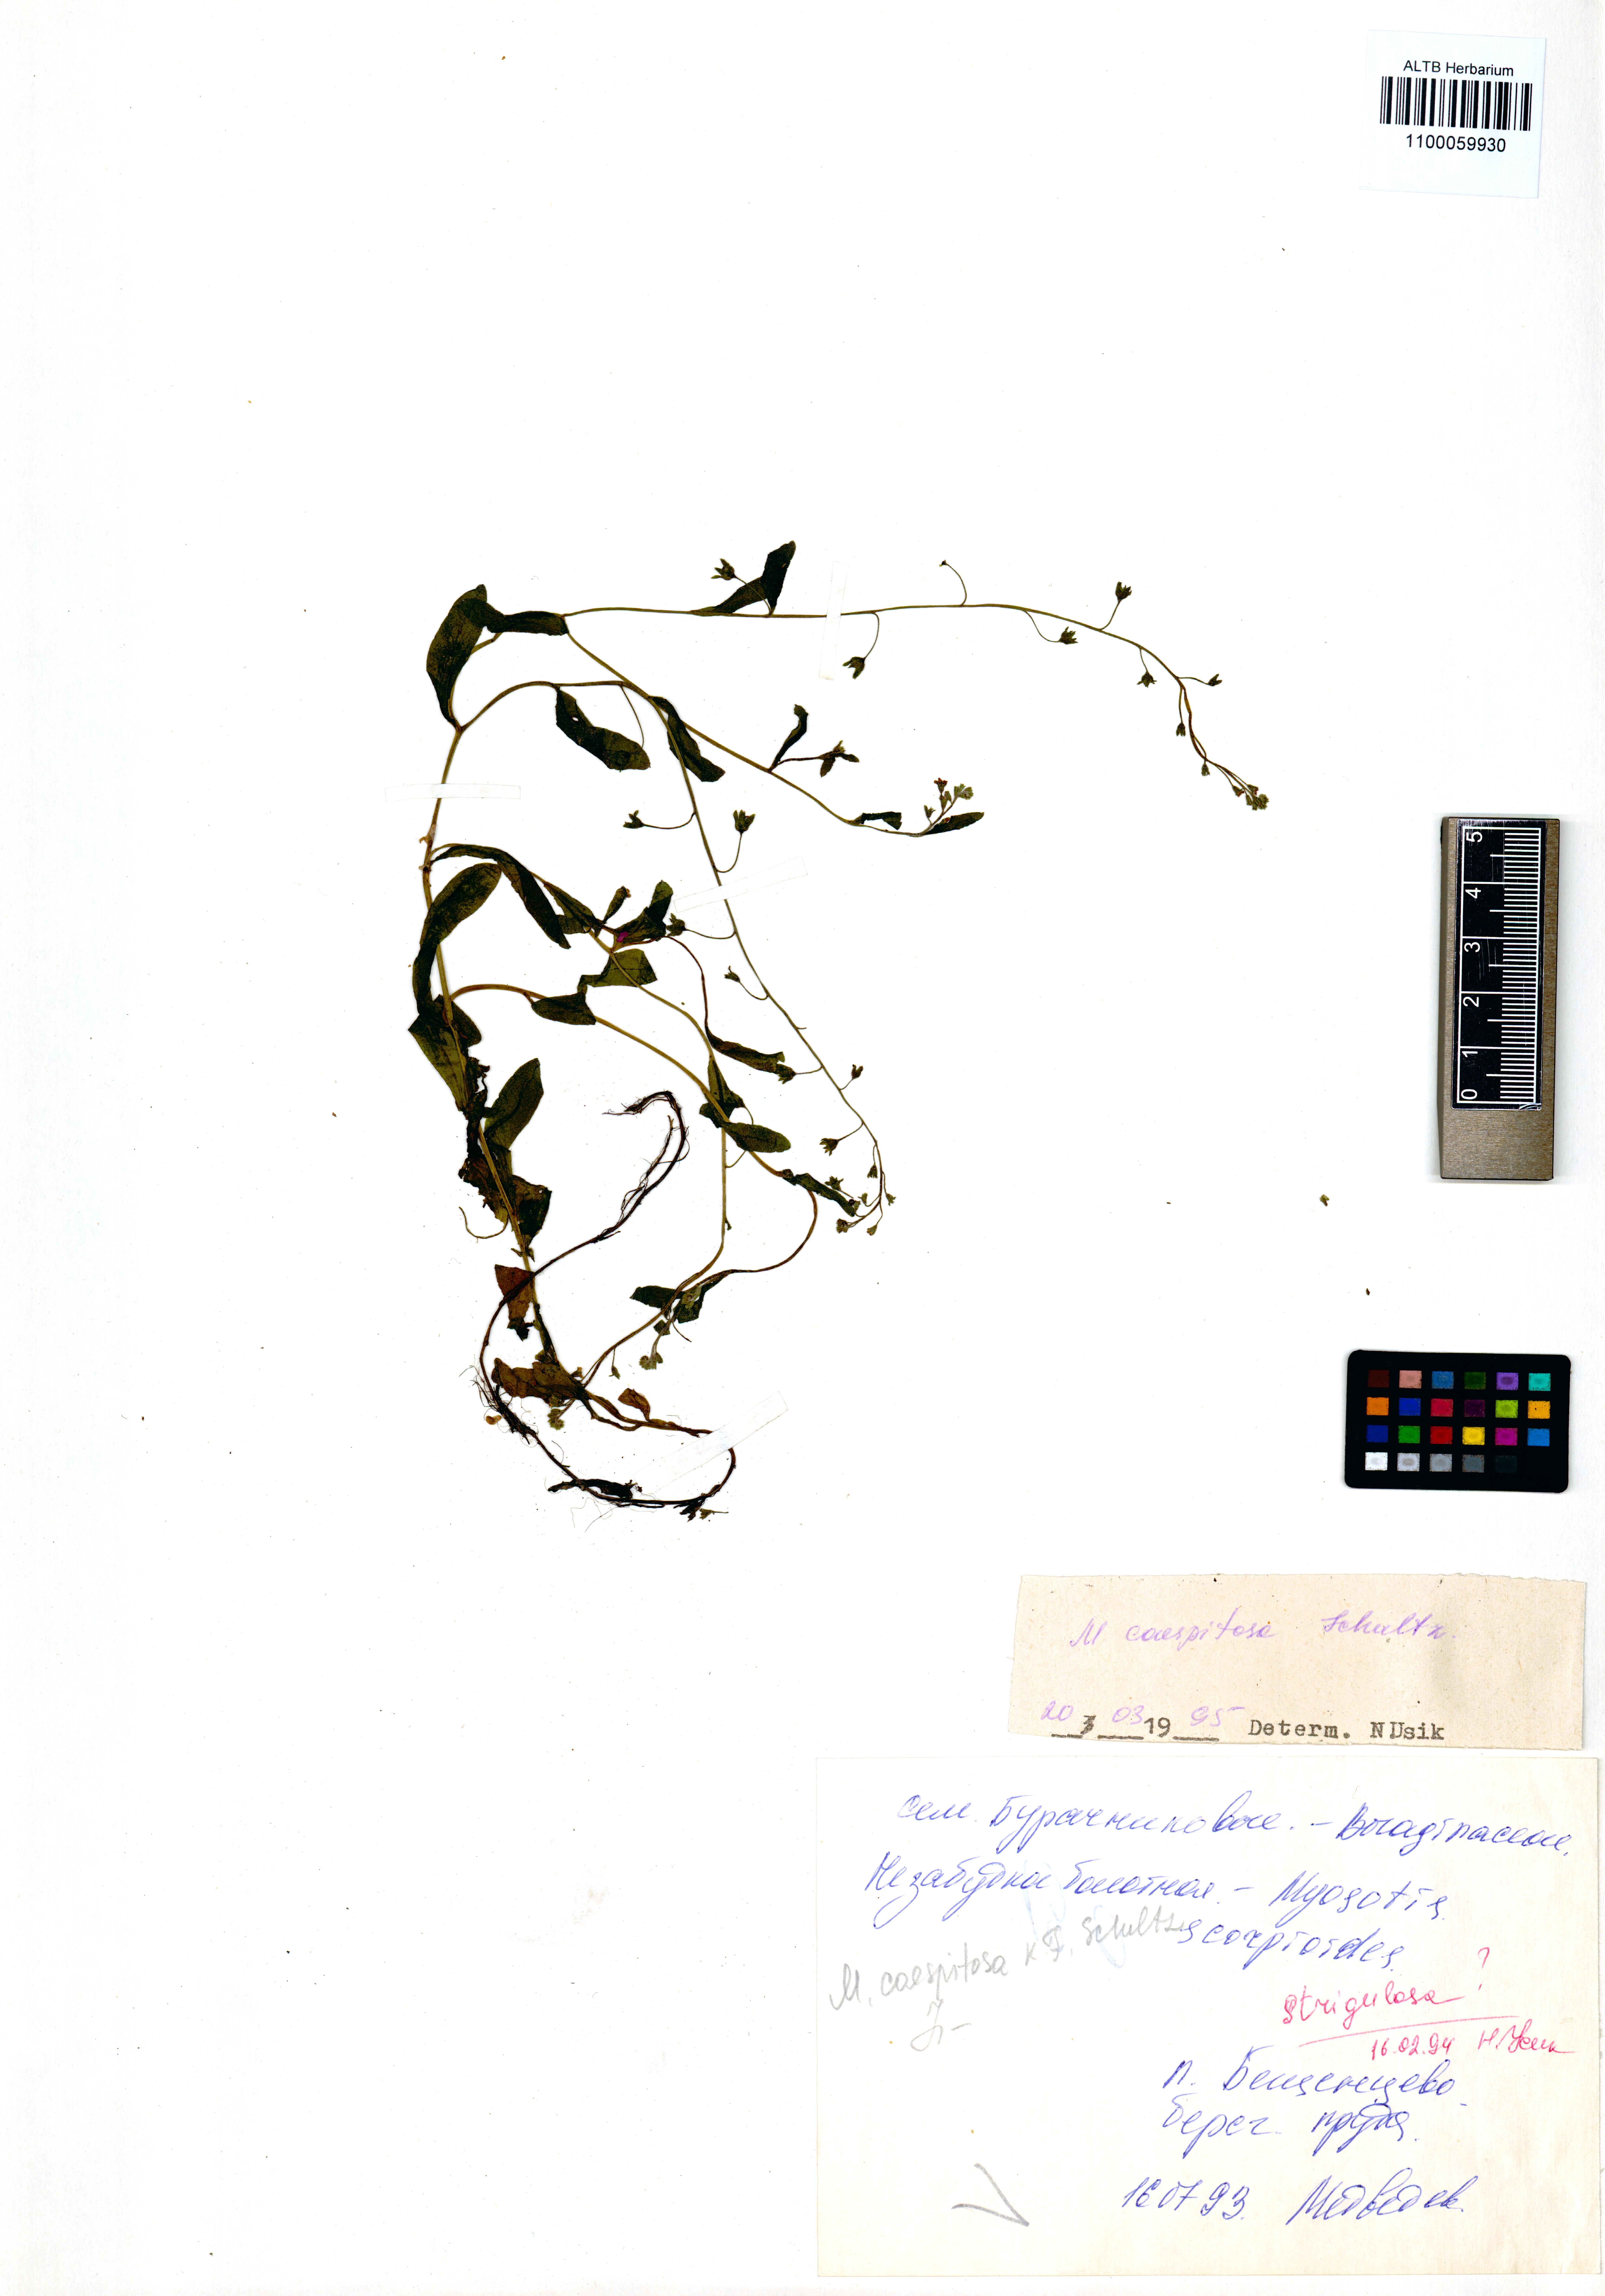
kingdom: Plantae
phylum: Tracheophyta
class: Magnoliopsida
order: Boraginales
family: Boraginaceae
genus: Myosotis
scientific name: Myosotis laxa
